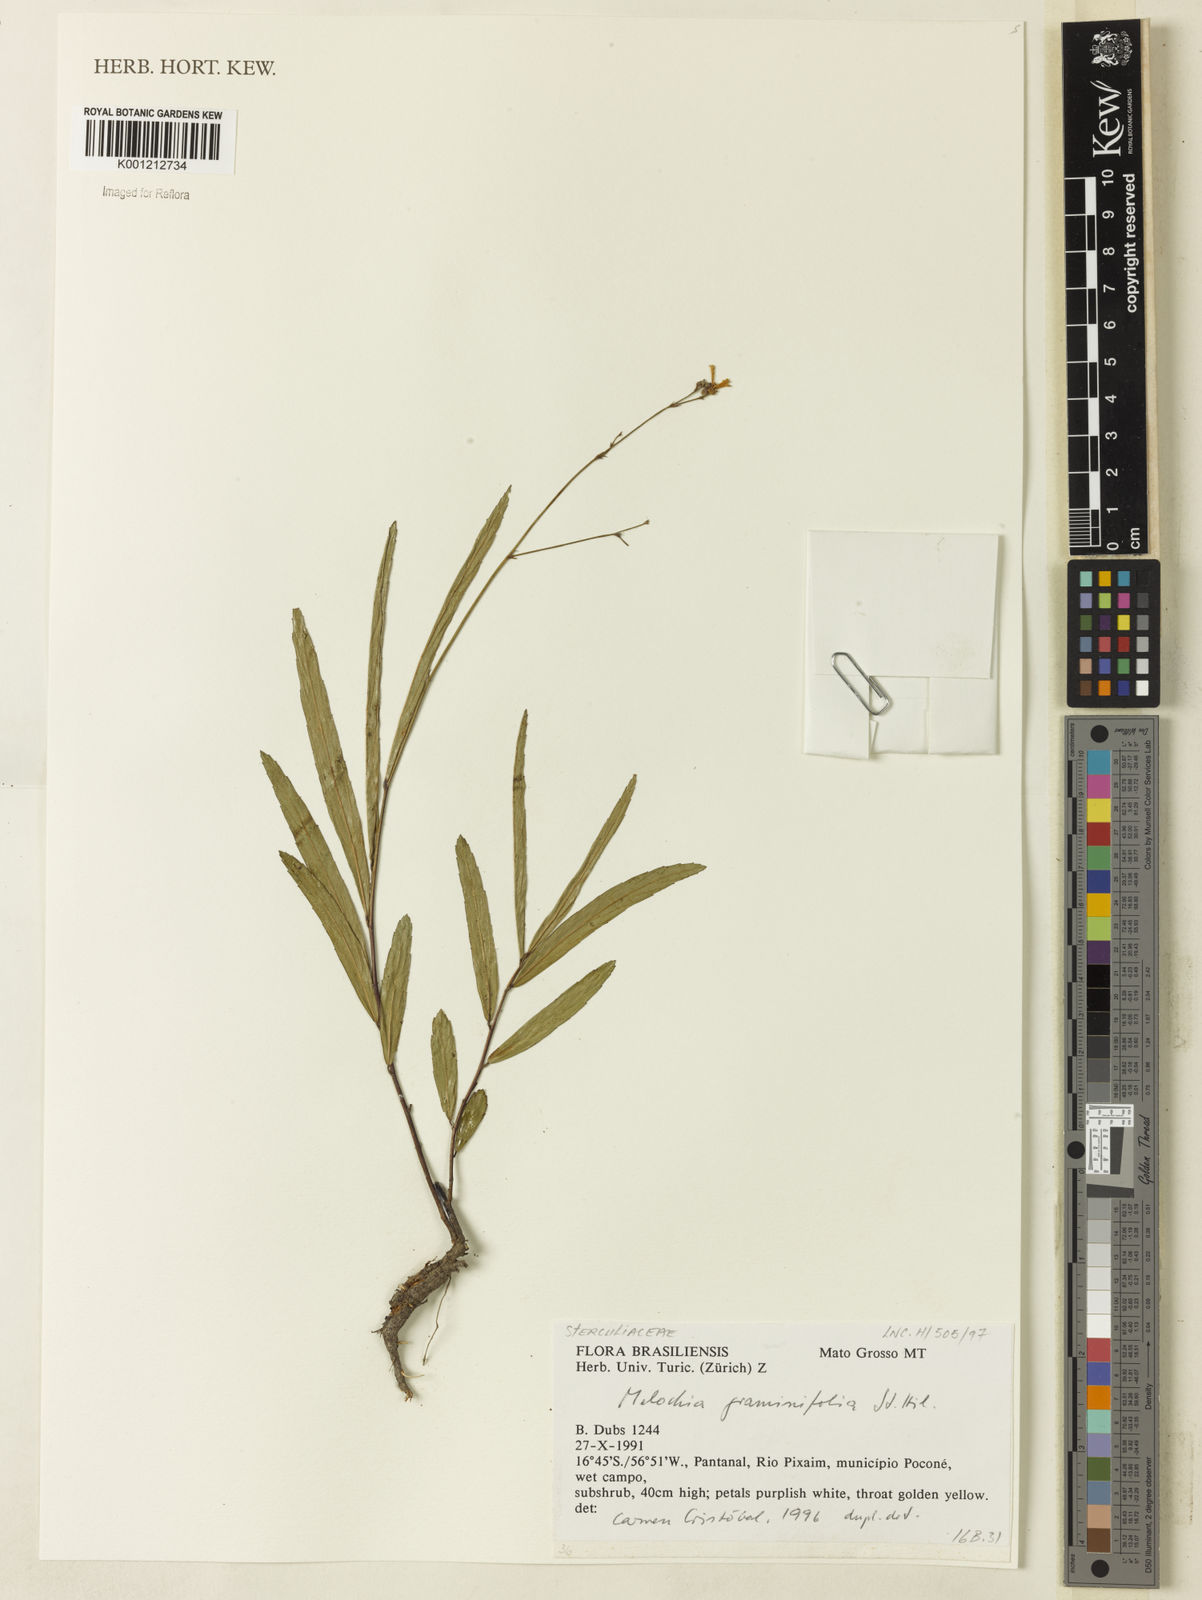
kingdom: Plantae
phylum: Tracheophyta
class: Magnoliopsida
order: Malvales
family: Malvaceae
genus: Melochia
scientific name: Melochia graminifolia
